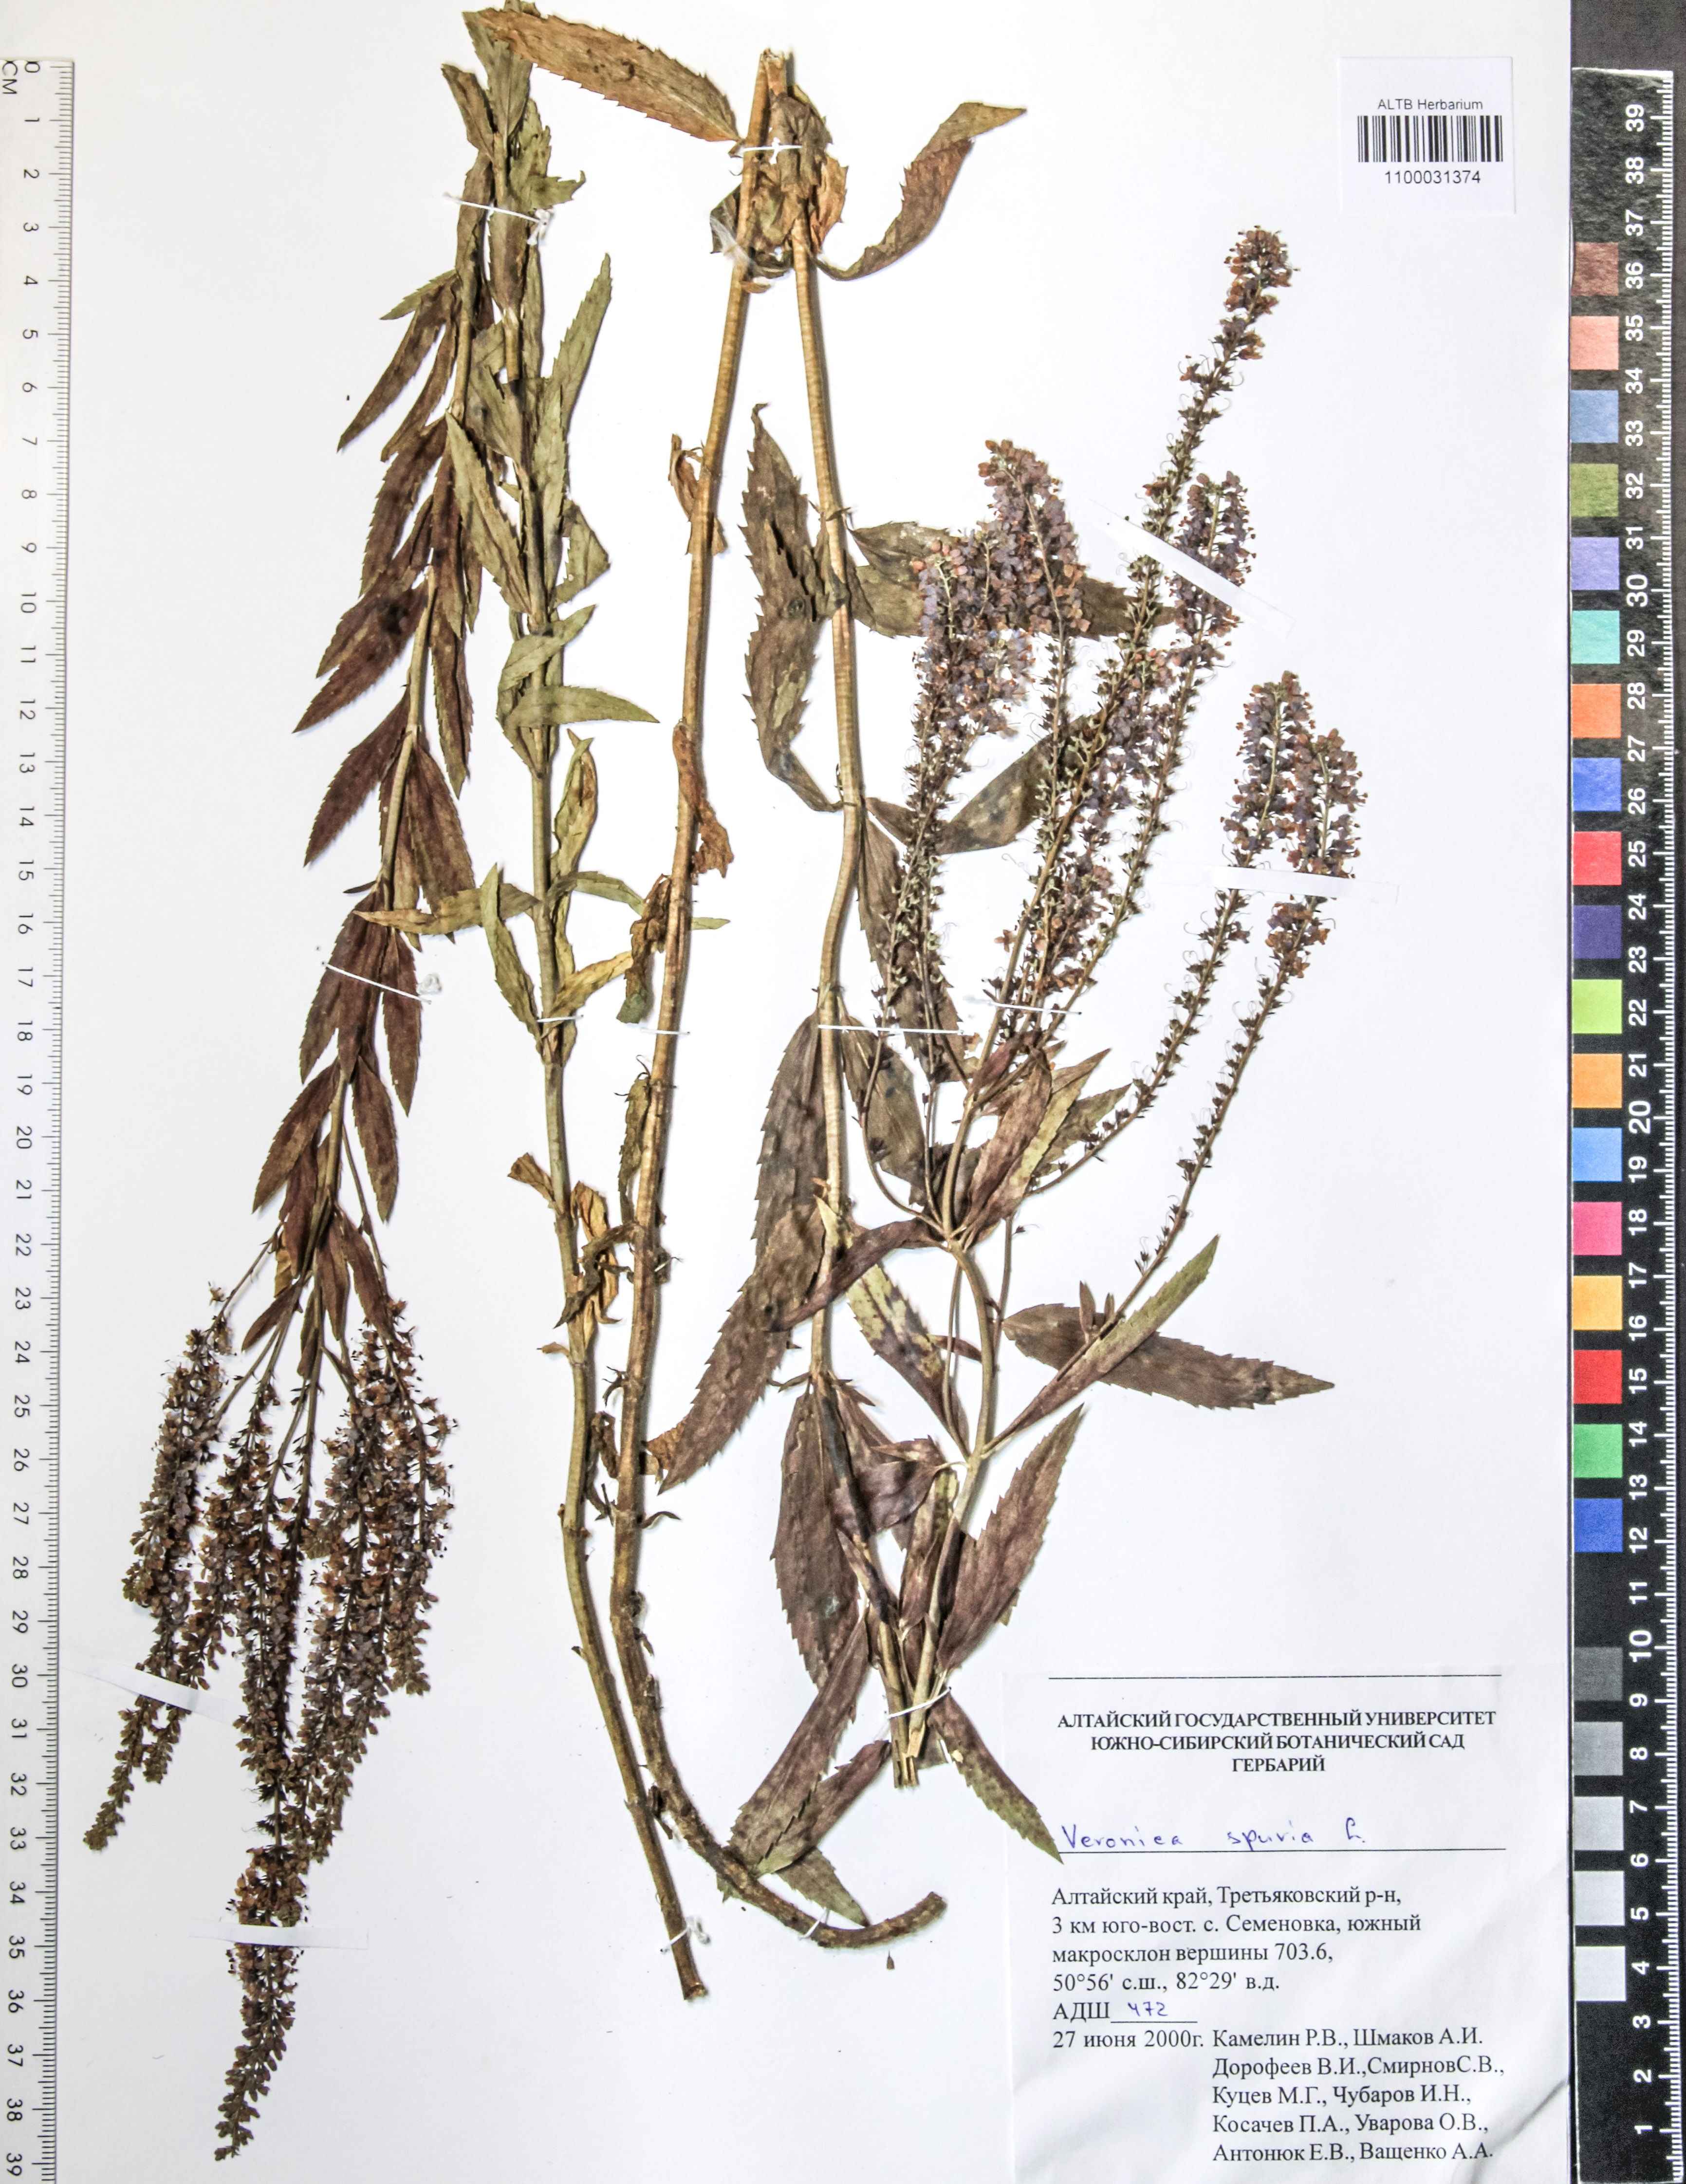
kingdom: Plantae
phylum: Tracheophyta
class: Magnoliopsida
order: Lamiales
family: Plantaginaceae
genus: Veronica
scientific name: Veronica spuria
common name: Bastard speedwell
